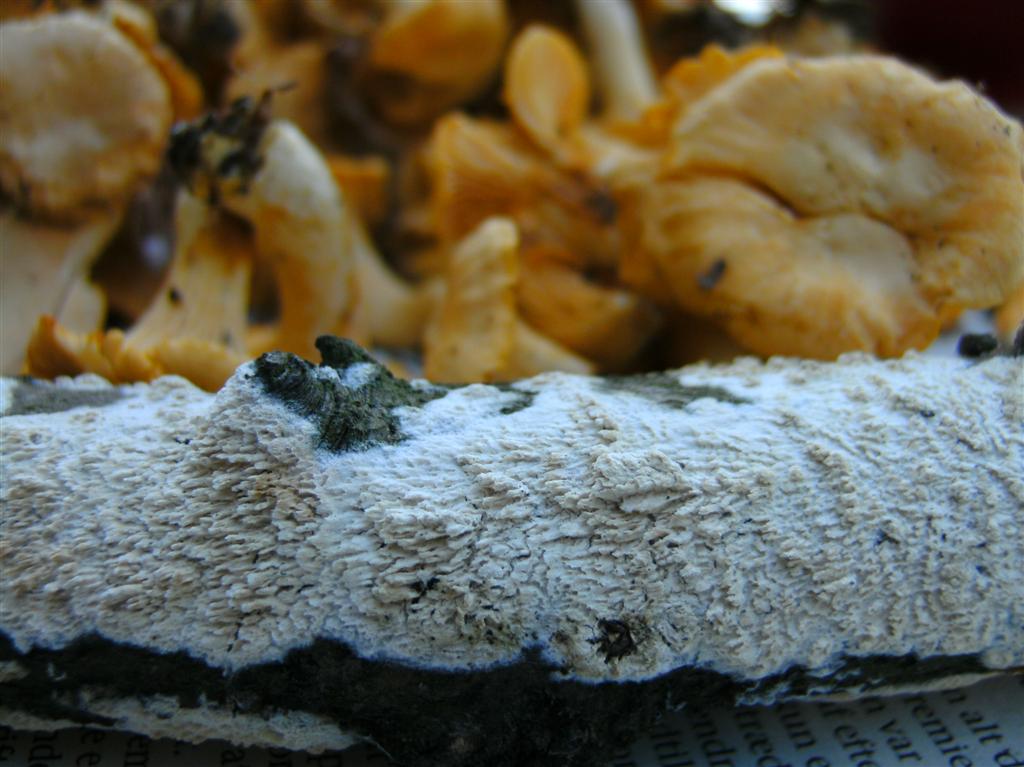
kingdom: Fungi
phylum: Basidiomycota
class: Agaricomycetes
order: Hymenochaetales
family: Schizoporaceae
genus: Schizopora
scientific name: Schizopora paradoxa
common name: hvid tandsvamp
